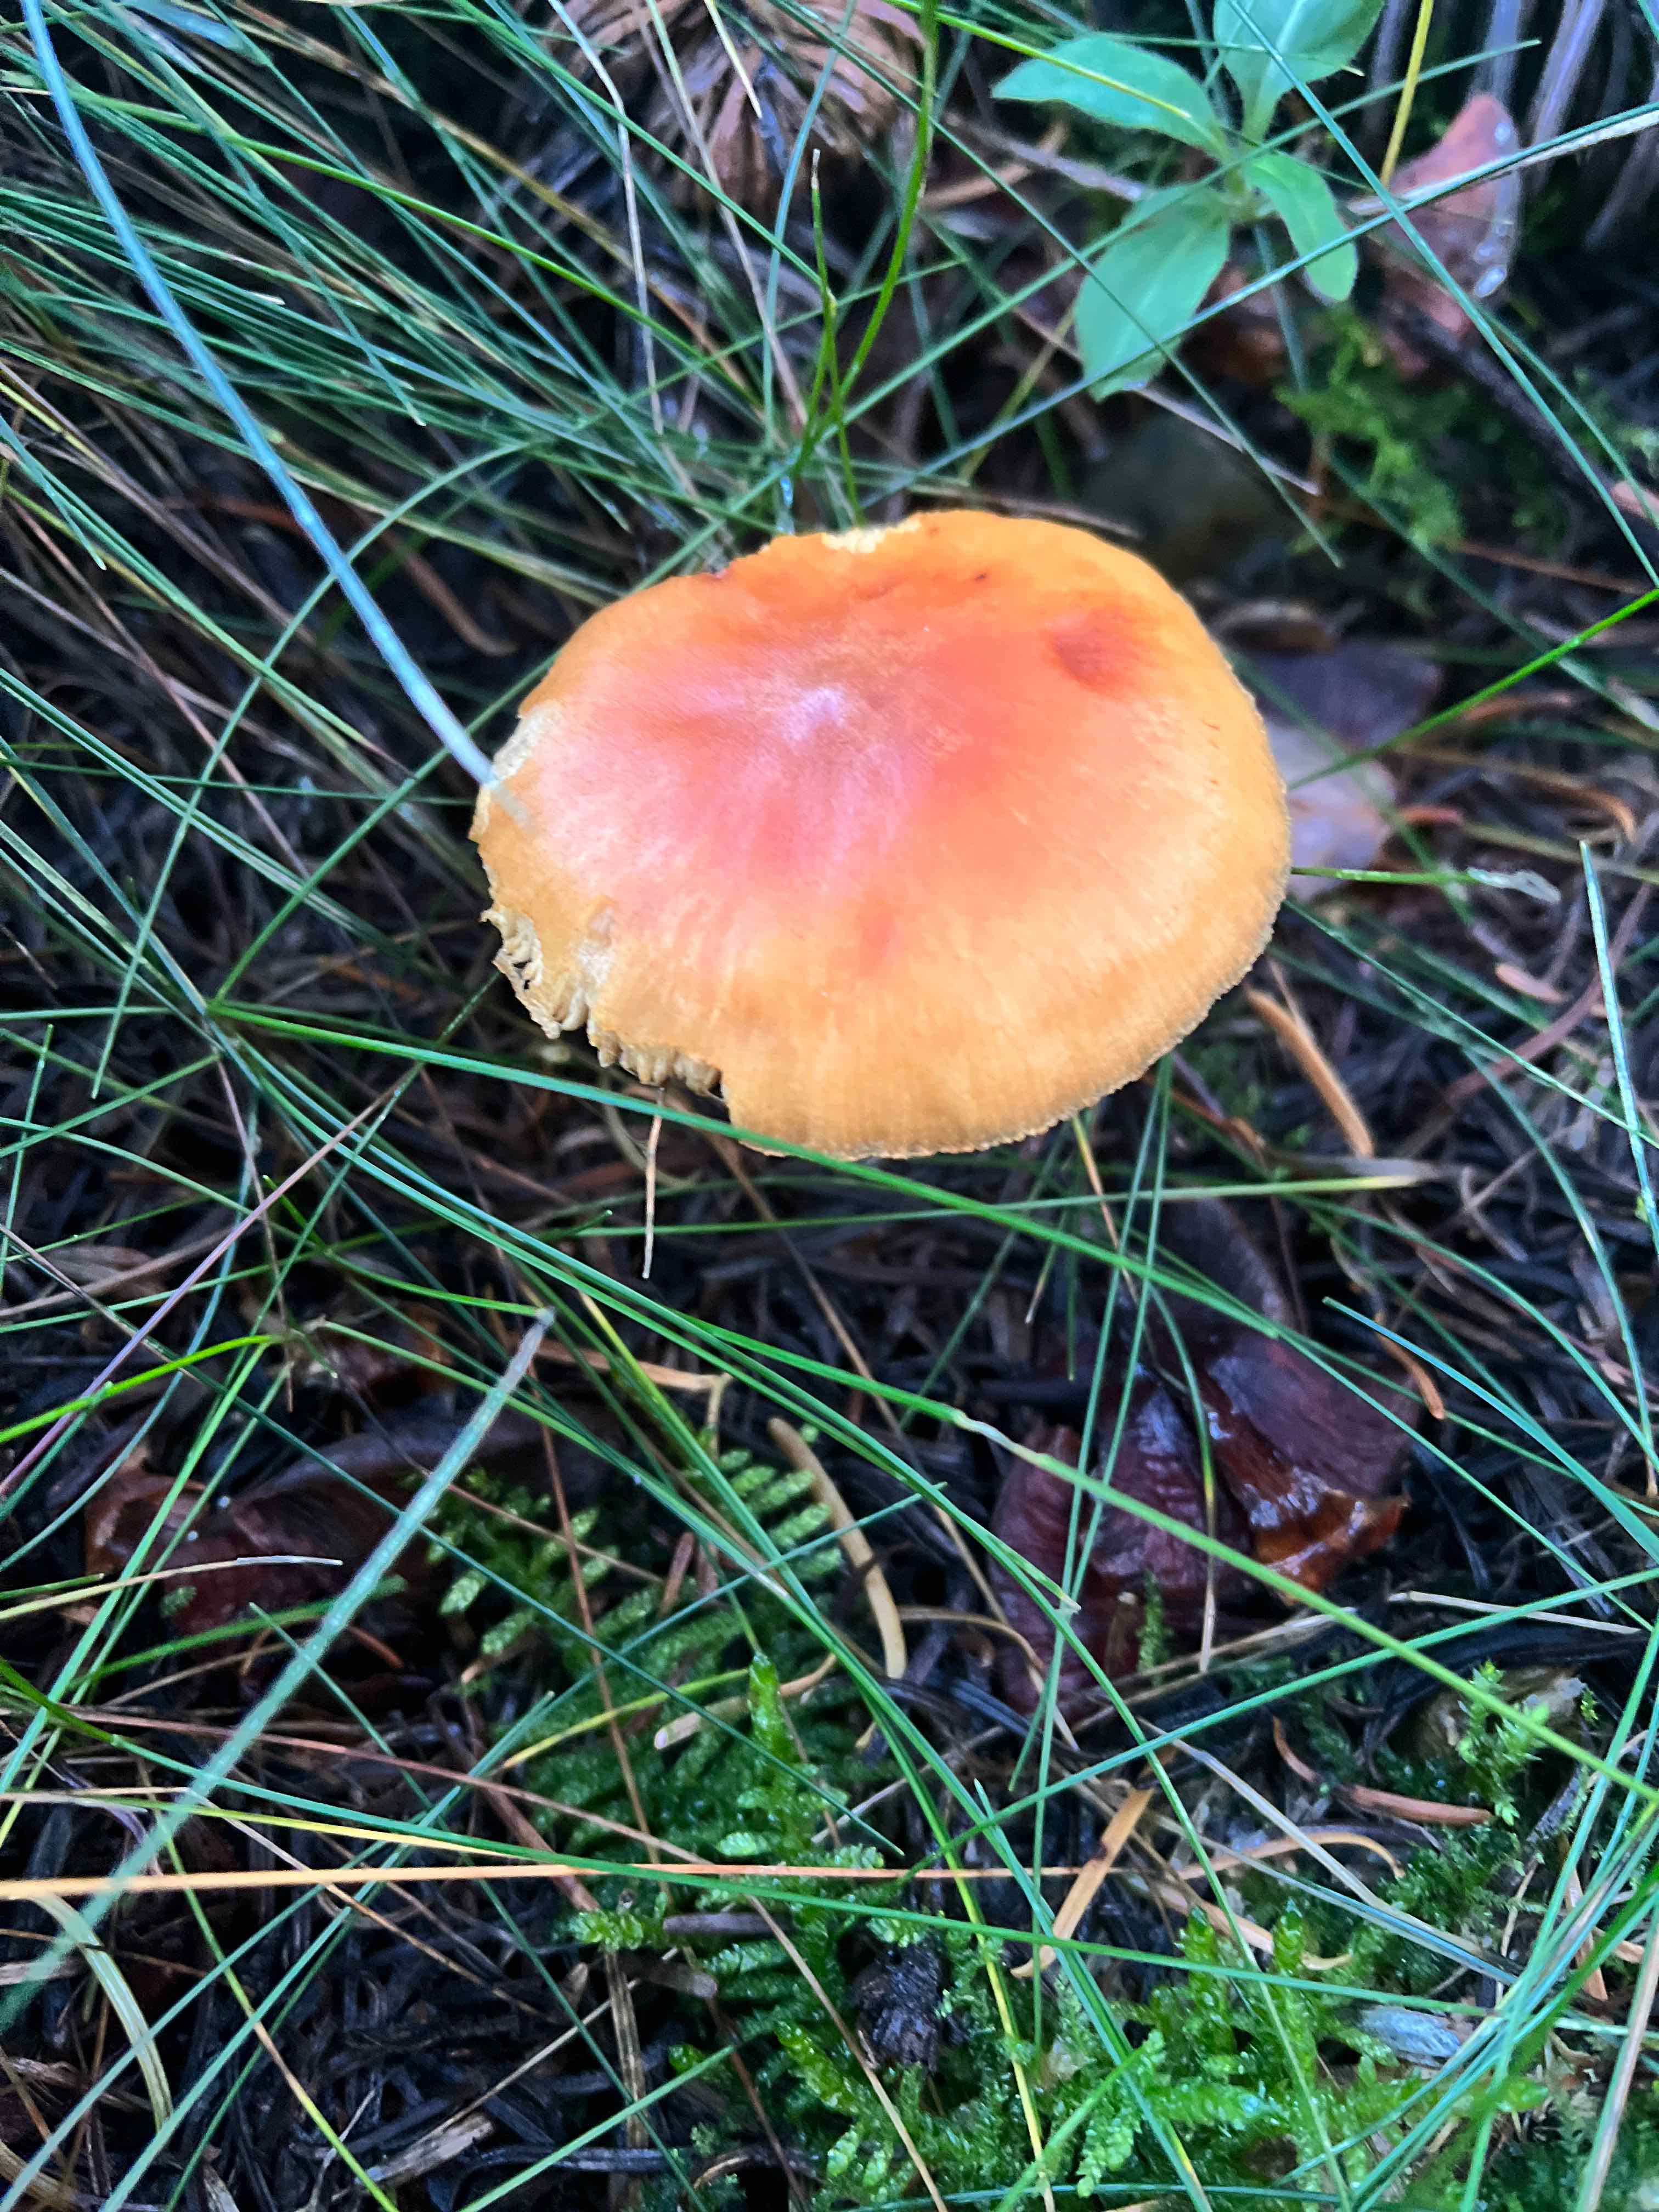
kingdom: Fungi
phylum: Basidiomycota
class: Agaricomycetes
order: Agaricales
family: Hymenogastraceae
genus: Gymnopilus
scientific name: Gymnopilus penetrans
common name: plettet flammehat
